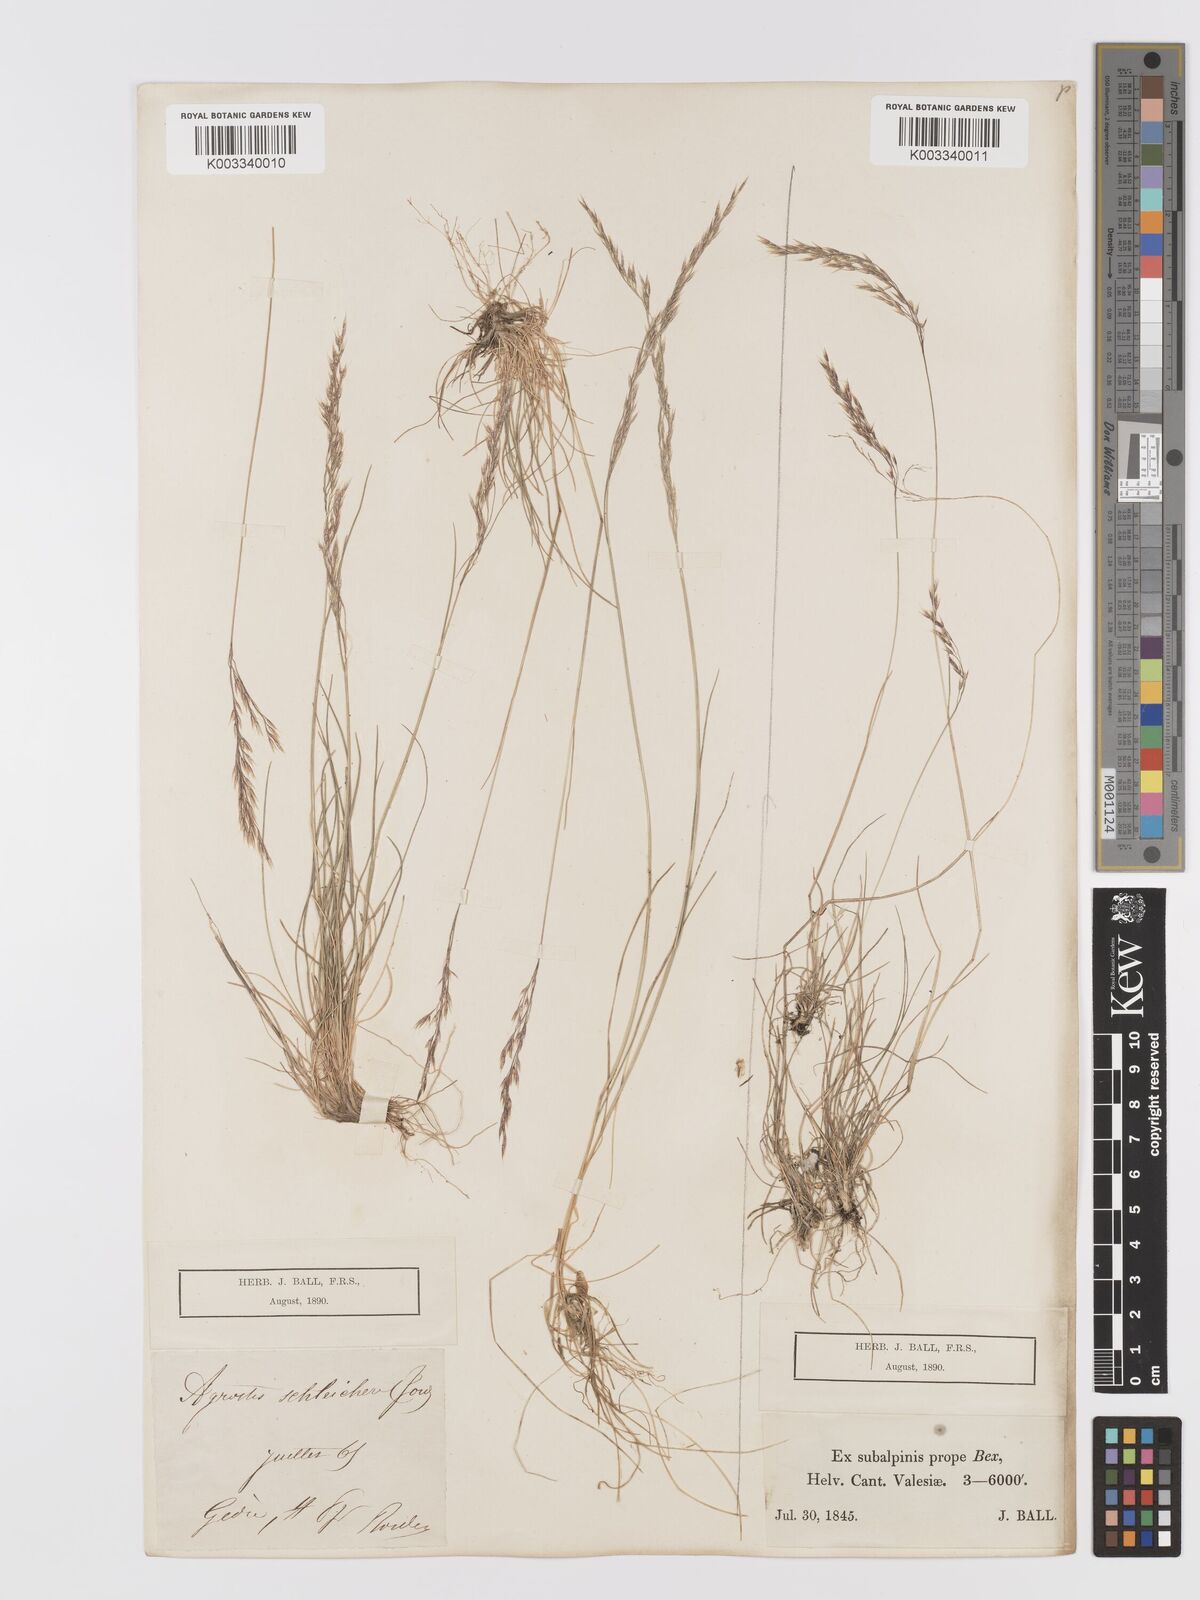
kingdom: Plantae
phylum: Tracheophyta
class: Liliopsida
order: Poales
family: Poaceae
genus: Alpagrostis
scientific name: Alpagrostis schleicheri
